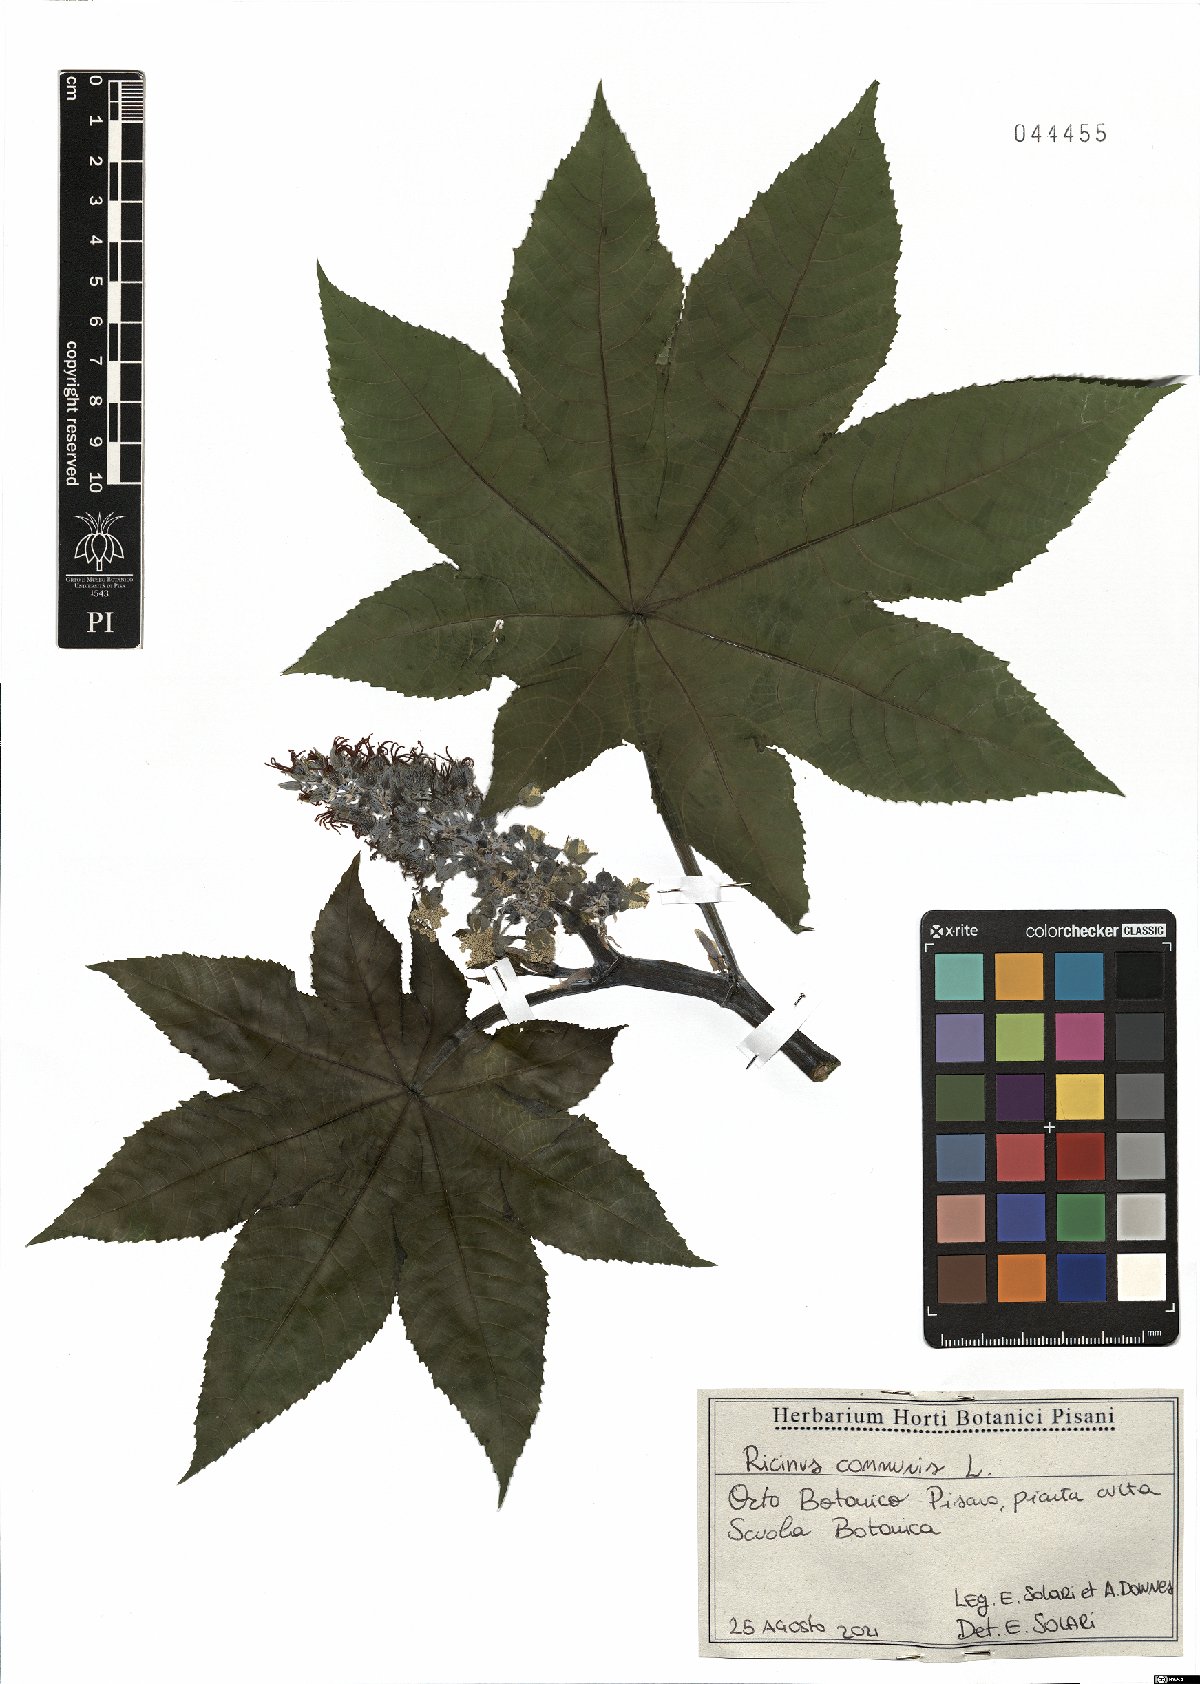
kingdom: Plantae
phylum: Tracheophyta
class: Magnoliopsida
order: Malpighiales
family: Euphorbiaceae
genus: Ricinus
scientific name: Ricinus communis
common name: Castor-oil-plant
